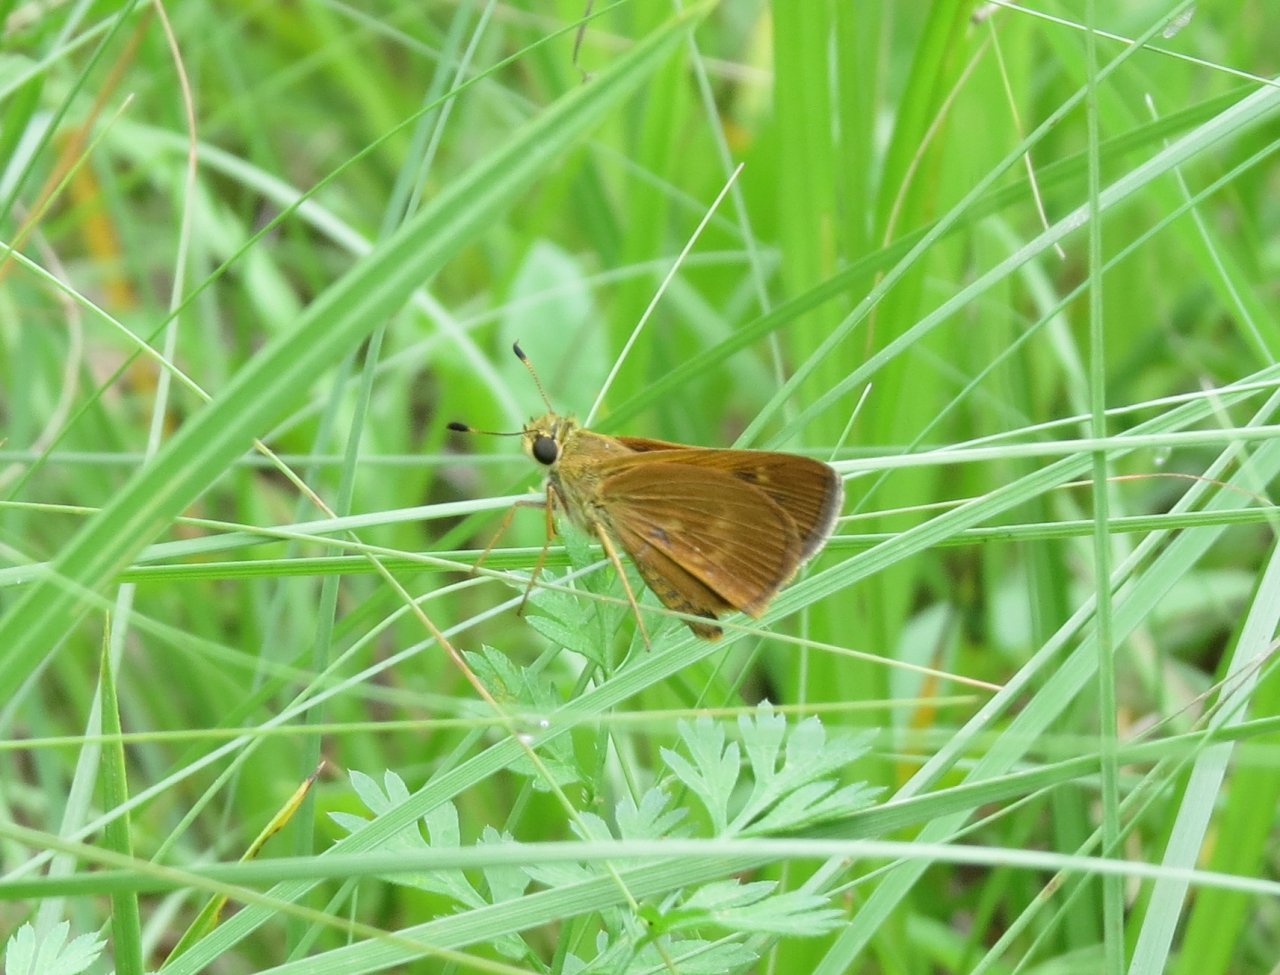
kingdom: Animalia
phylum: Arthropoda
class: Insecta
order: Lepidoptera
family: Hesperiidae
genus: Wallengrenia
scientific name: Wallengrenia otho
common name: Southern Broken-Dash
